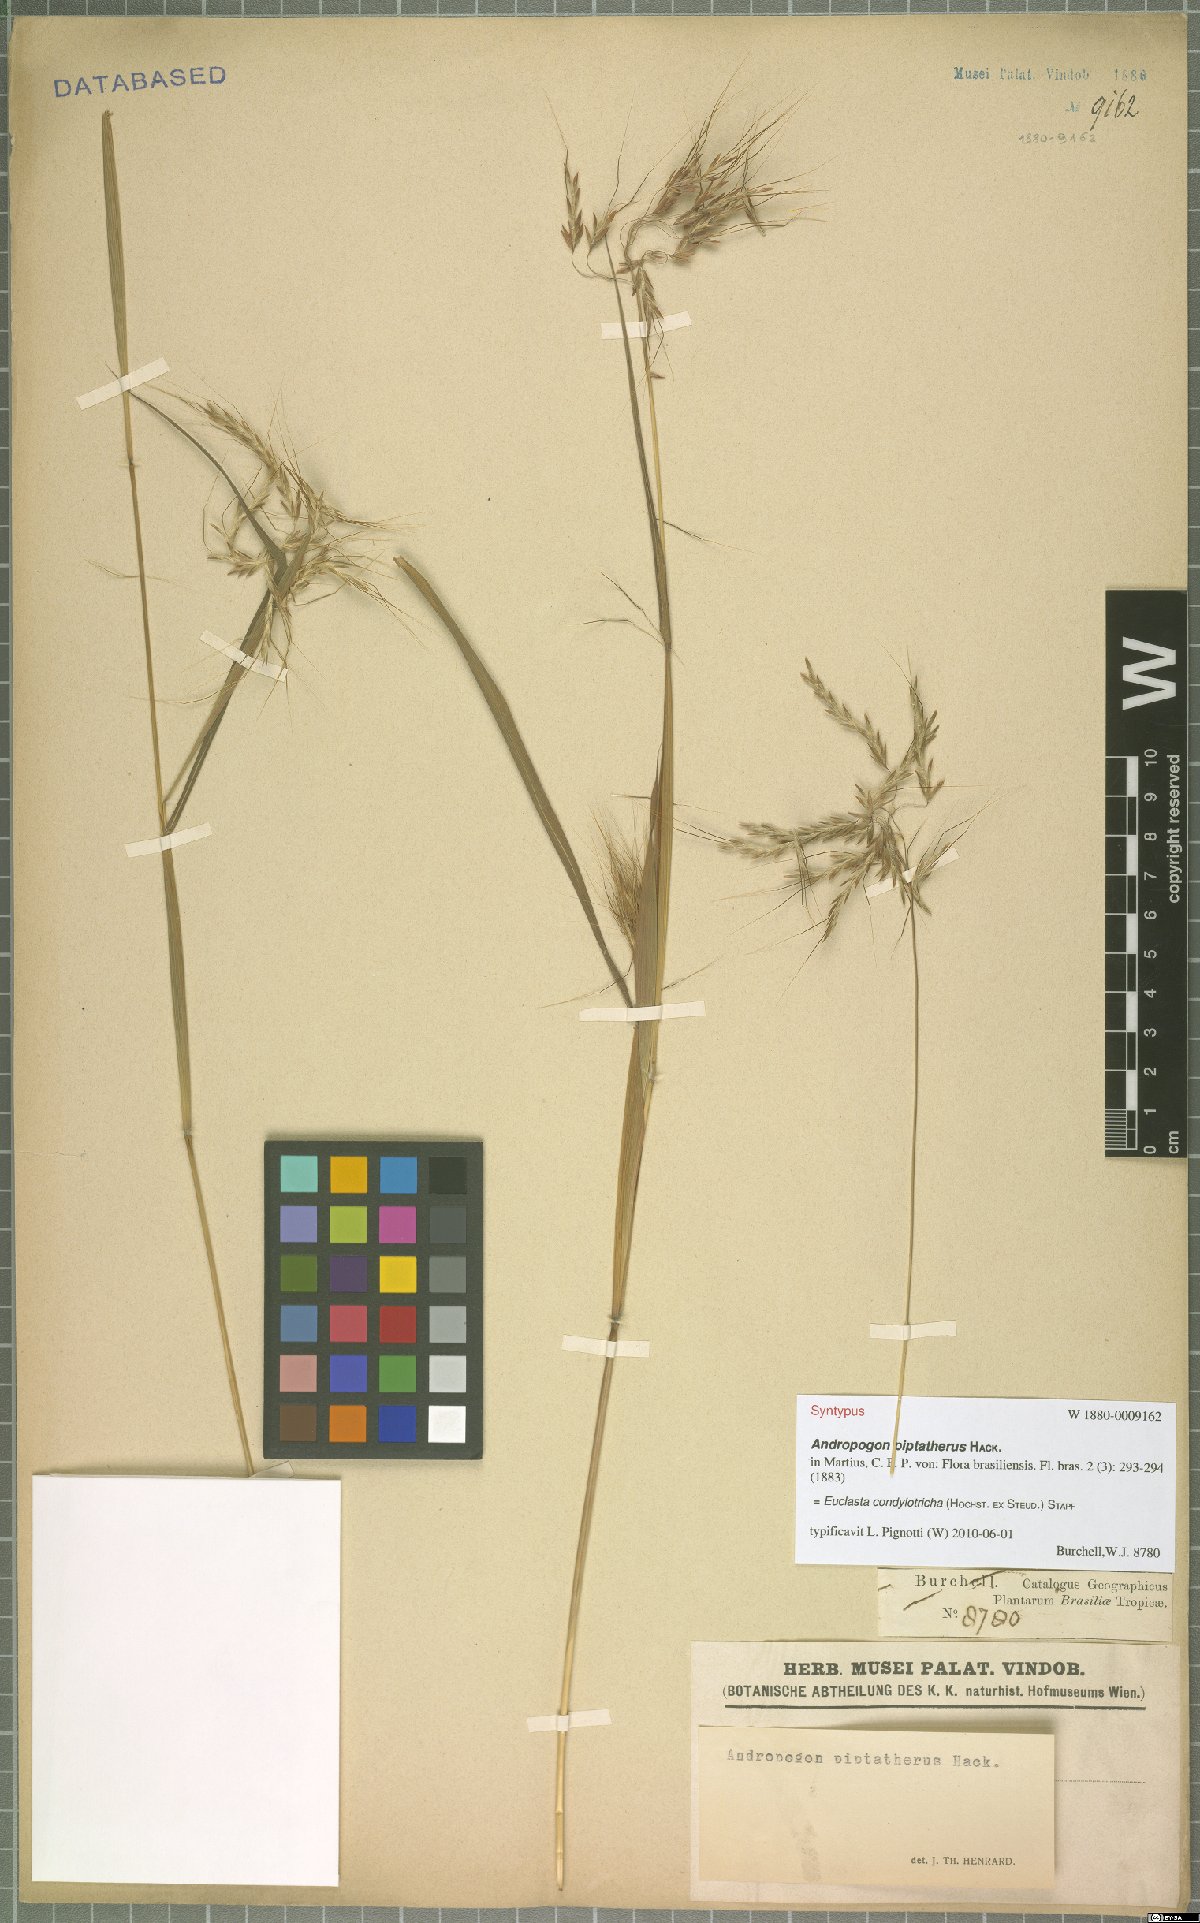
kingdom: Plantae
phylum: Tracheophyta
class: Liliopsida
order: Poales
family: Poaceae
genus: Euclasta
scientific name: Euclasta condylotricha
